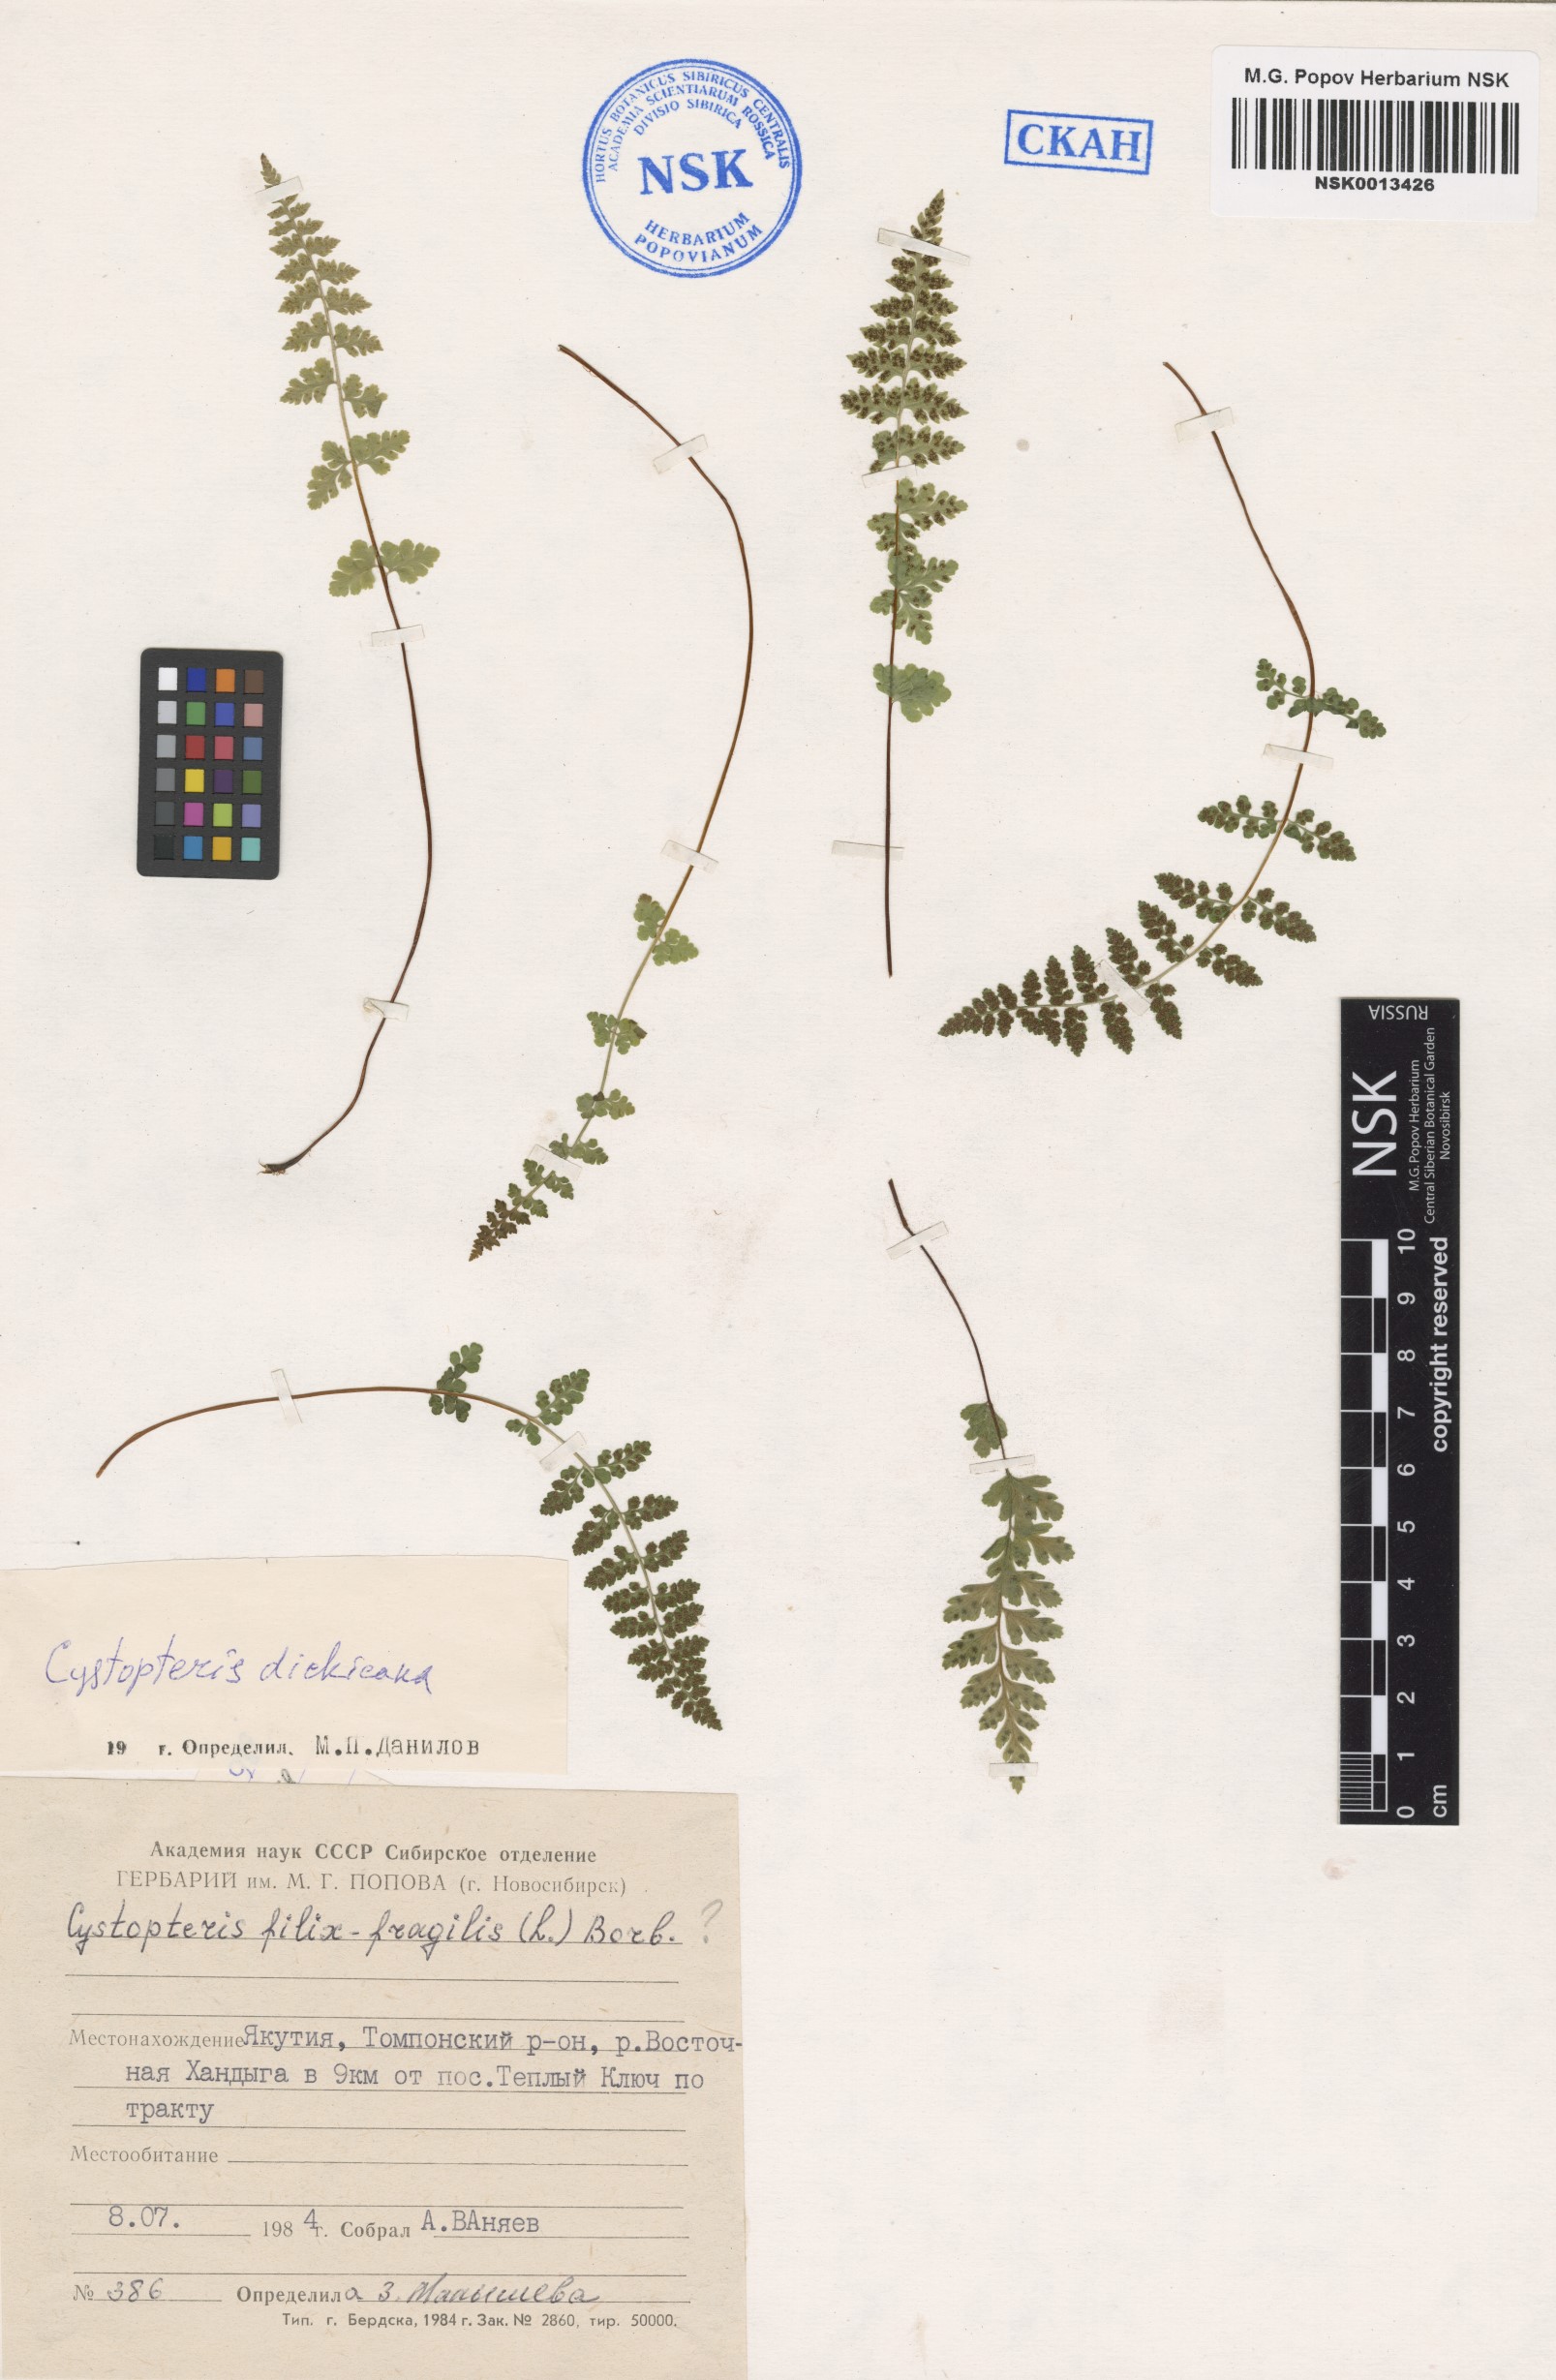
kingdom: Plantae
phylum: Tracheophyta
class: Polypodiopsida
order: Polypodiales
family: Cystopteridaceae
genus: Cystopteris
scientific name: Cystopteris dickieana
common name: Dickie's bladder-fern
